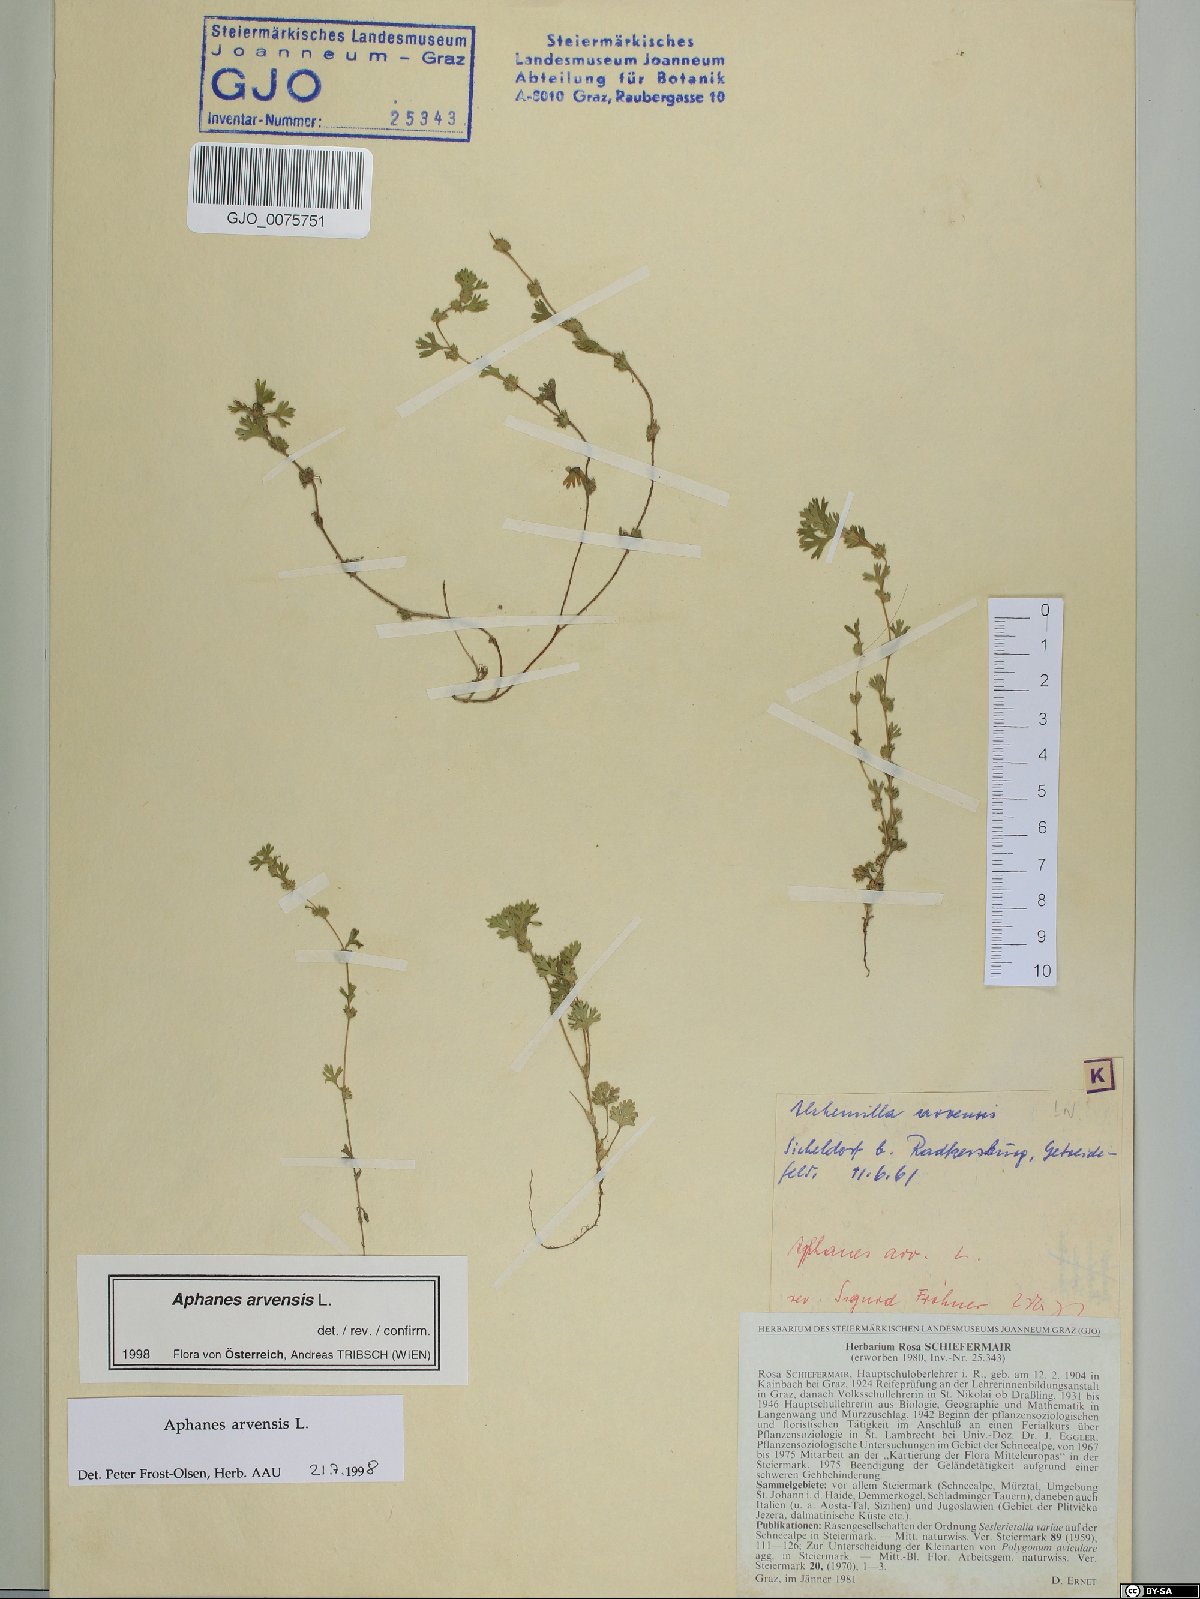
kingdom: Plantae
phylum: Tracheophyta
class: Magnoliopsida
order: Rosales
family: Rosaceae
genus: Aphanes
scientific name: Aphanes arvensis
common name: Parsley-piert
